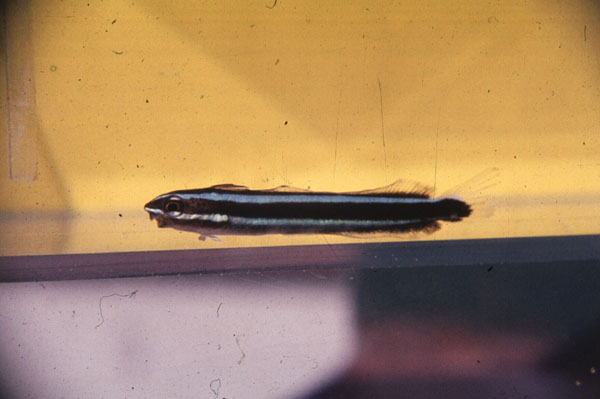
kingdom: Animalia
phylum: Chordata
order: Perciformes
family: Blenniidae
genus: Plagiotremus
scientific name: Plagiotremus rhinorhynchos
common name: Bluestriped fangblenny
